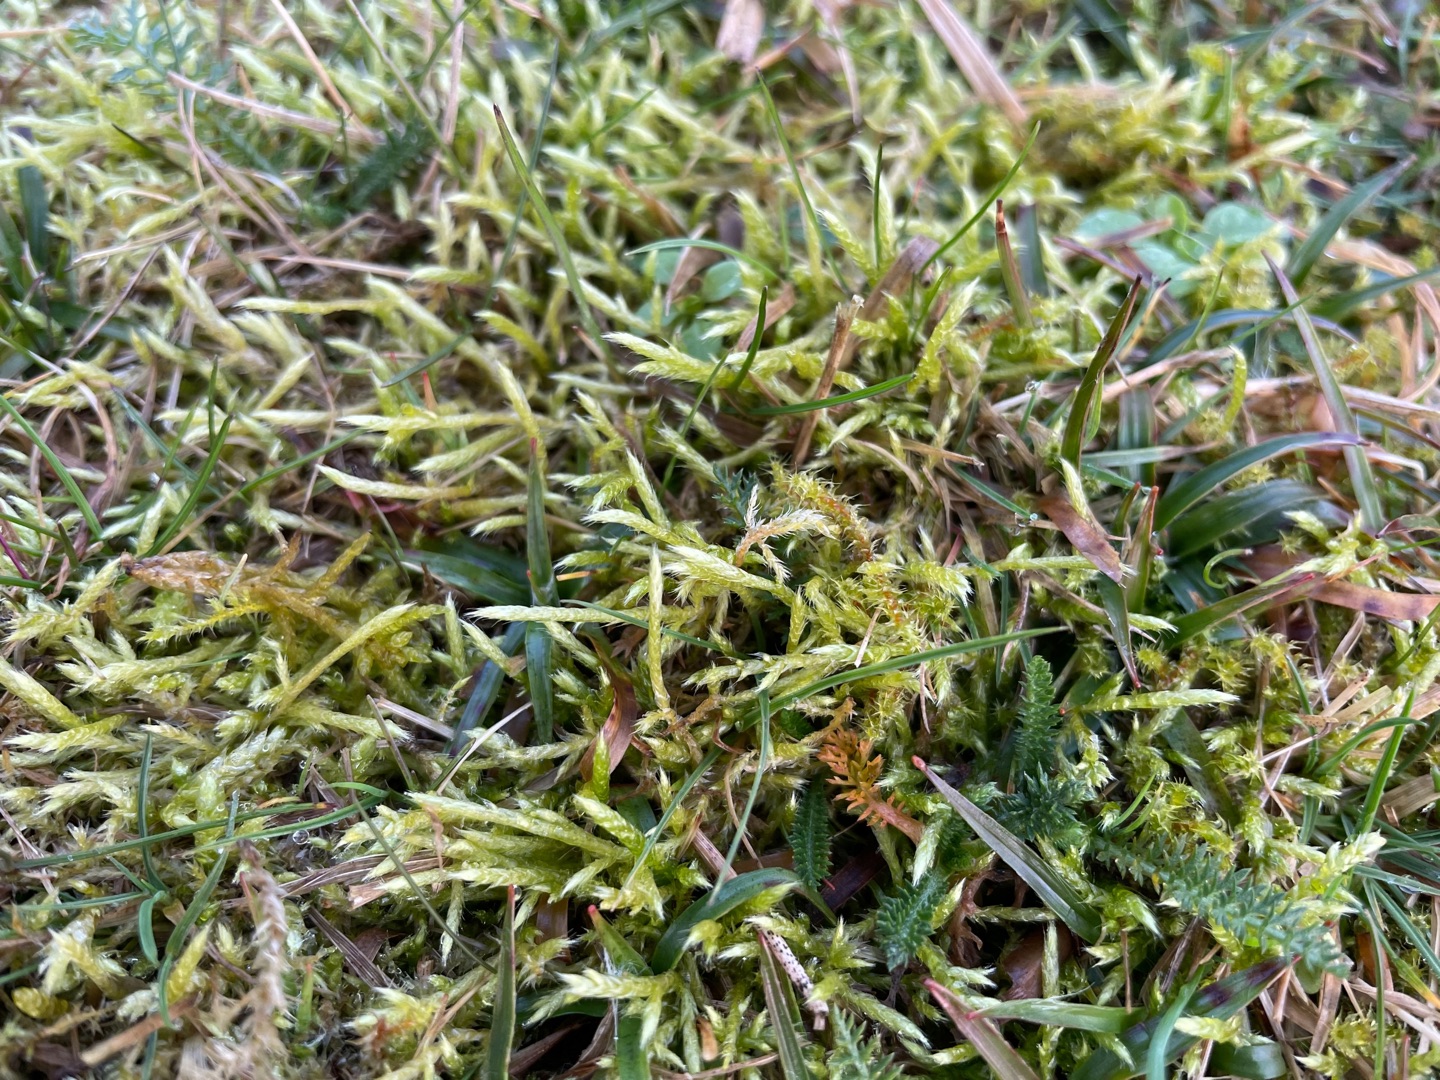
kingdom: Plantae
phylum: Bryophyta
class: Bryopsida
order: Hypnales
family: Brachytheciaceae
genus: Brachythecium
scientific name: Brachythecium albicans
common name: Hvidlig kortkapsel
